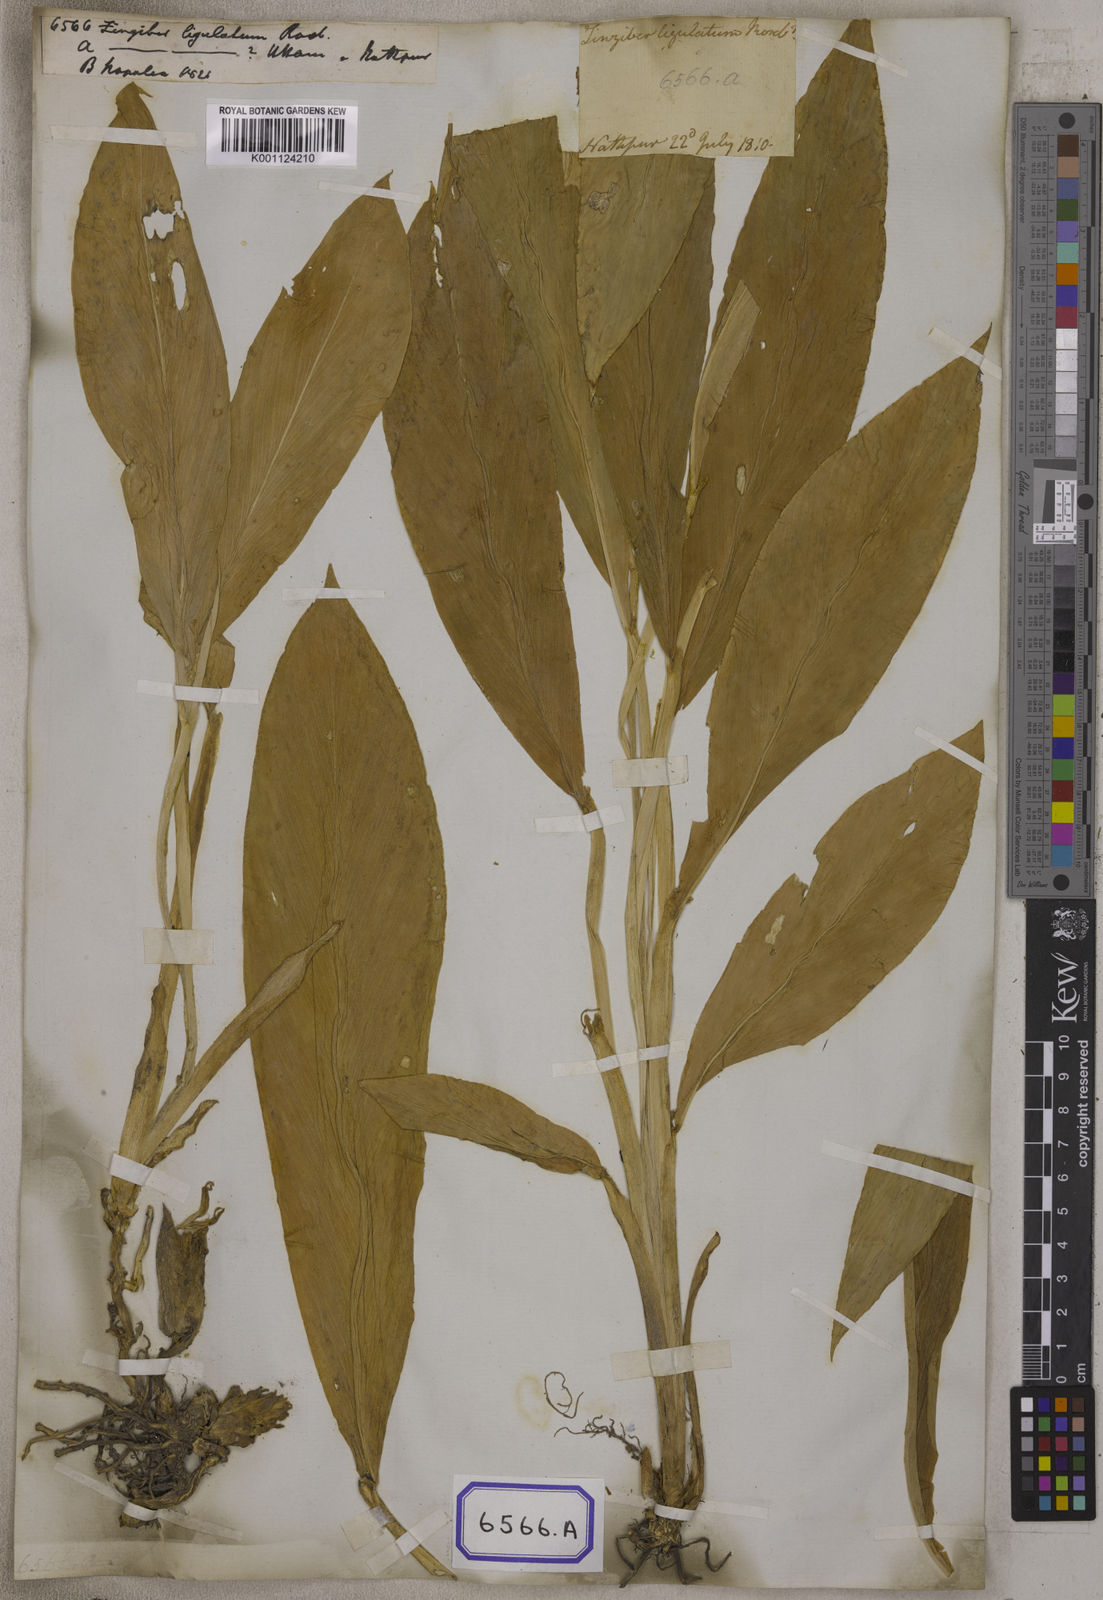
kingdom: Plantae
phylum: Tracheophyta
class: Liliopsida
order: Zingiberales
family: Zingiberaceae
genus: Zingiber
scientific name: Zingiber
